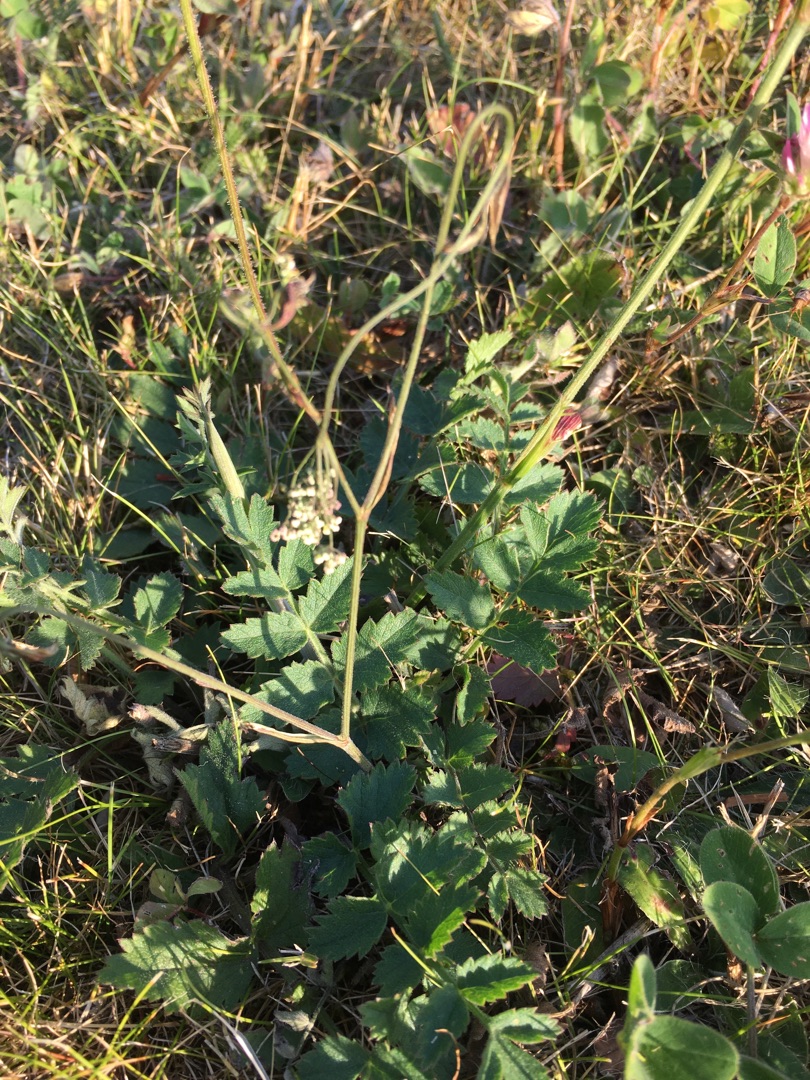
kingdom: Plantae
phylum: Tracheophyta
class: Magnoliopsida
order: Apiales
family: Apiaceae
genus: Pimpinella
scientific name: Pimpinella saxifraga
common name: Almindelig pimpinelle
